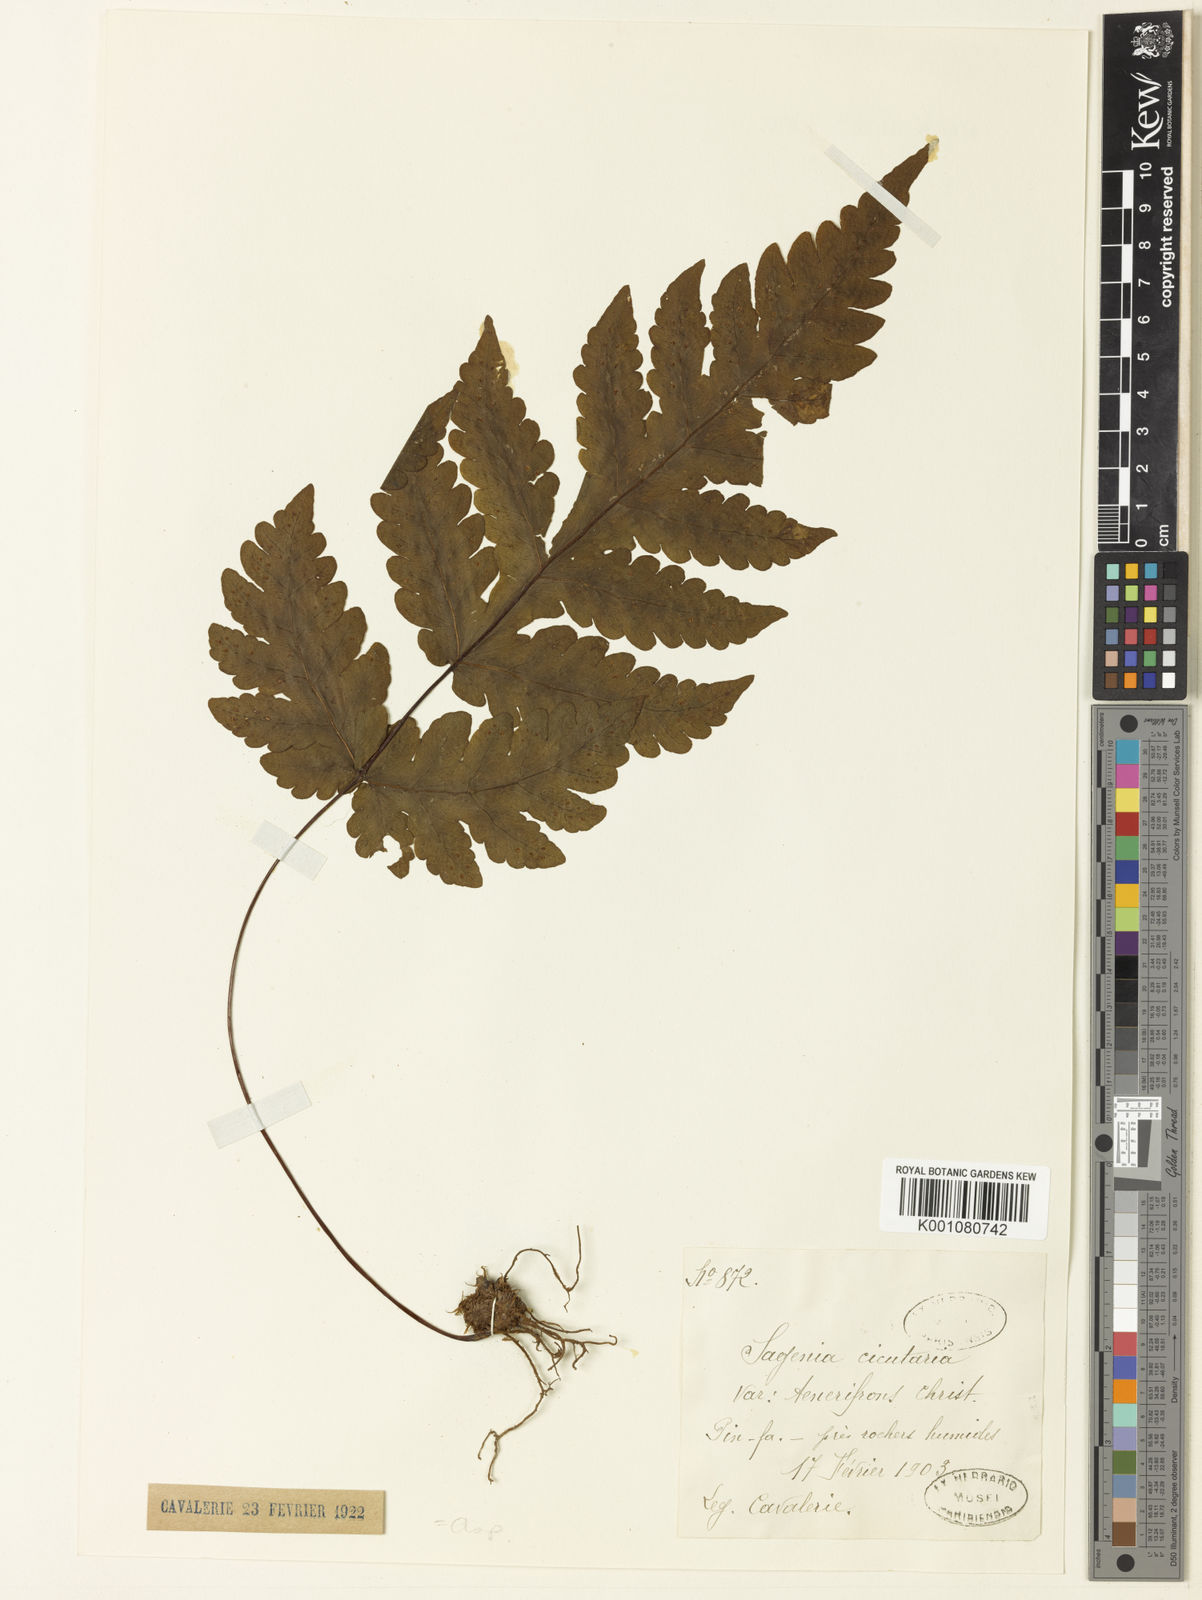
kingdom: Plantae
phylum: Tracheophyta
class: Polypodiopsida
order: Polypodiales
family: Tectariaceae
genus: Tectaria
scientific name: Tectaria coadunata
